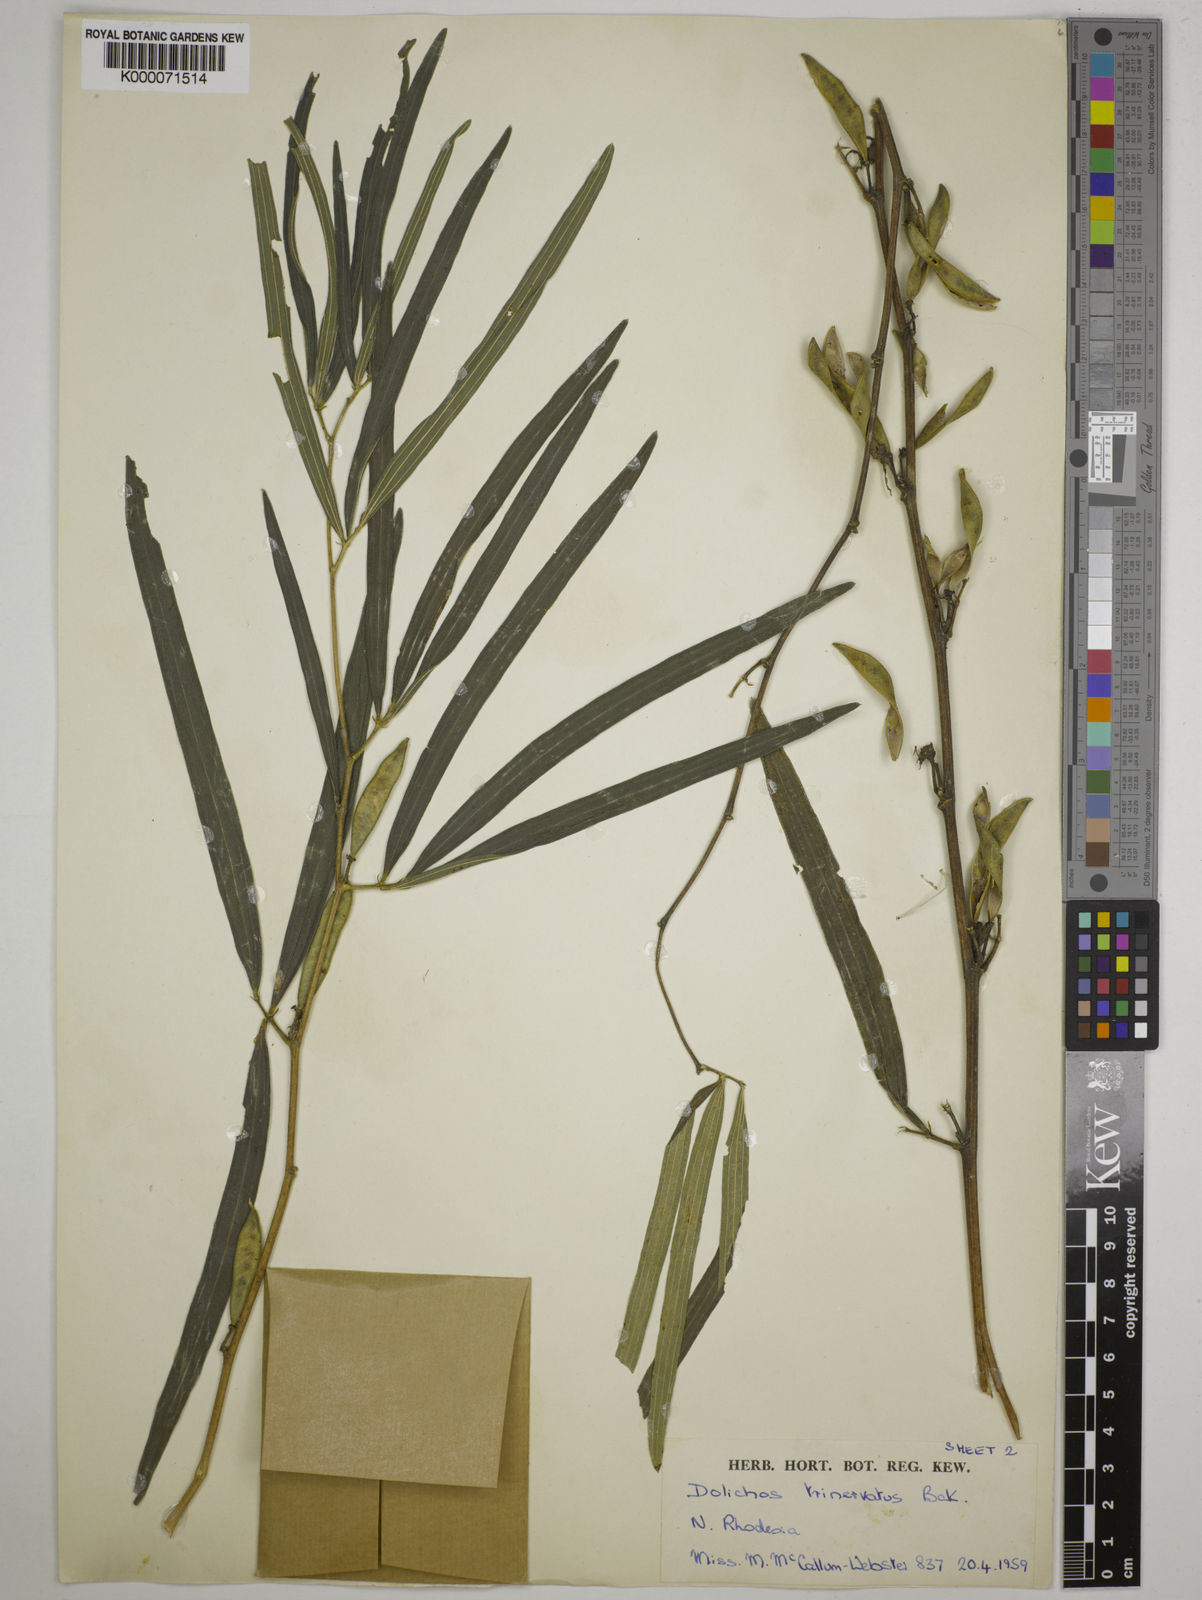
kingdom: Plantae
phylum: Tracheophyta
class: Magnoliopsida
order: Fabales
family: Fabaceae
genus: Dolichos
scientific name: Dolichos trinervatus
